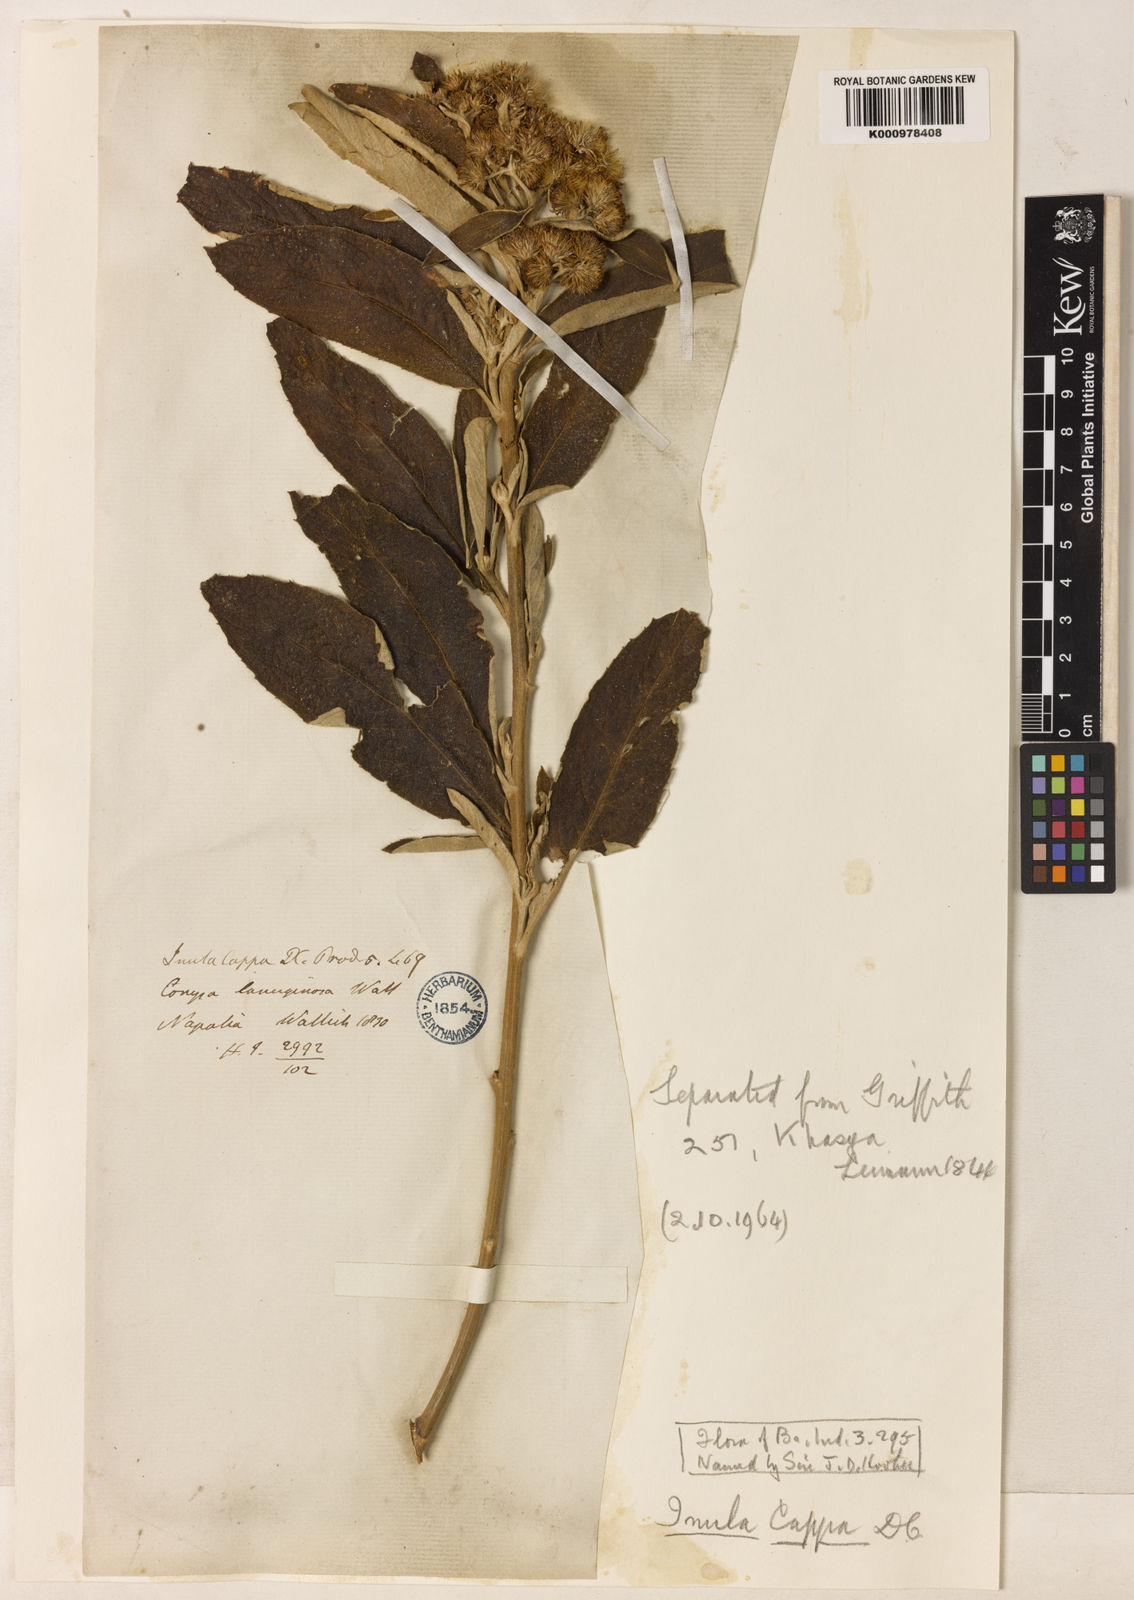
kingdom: Plantae
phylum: Tracheophyta
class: Magnoliopsida
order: Asterales
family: Asteraceae
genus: Duhaldea
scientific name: Duhaldea cappa
